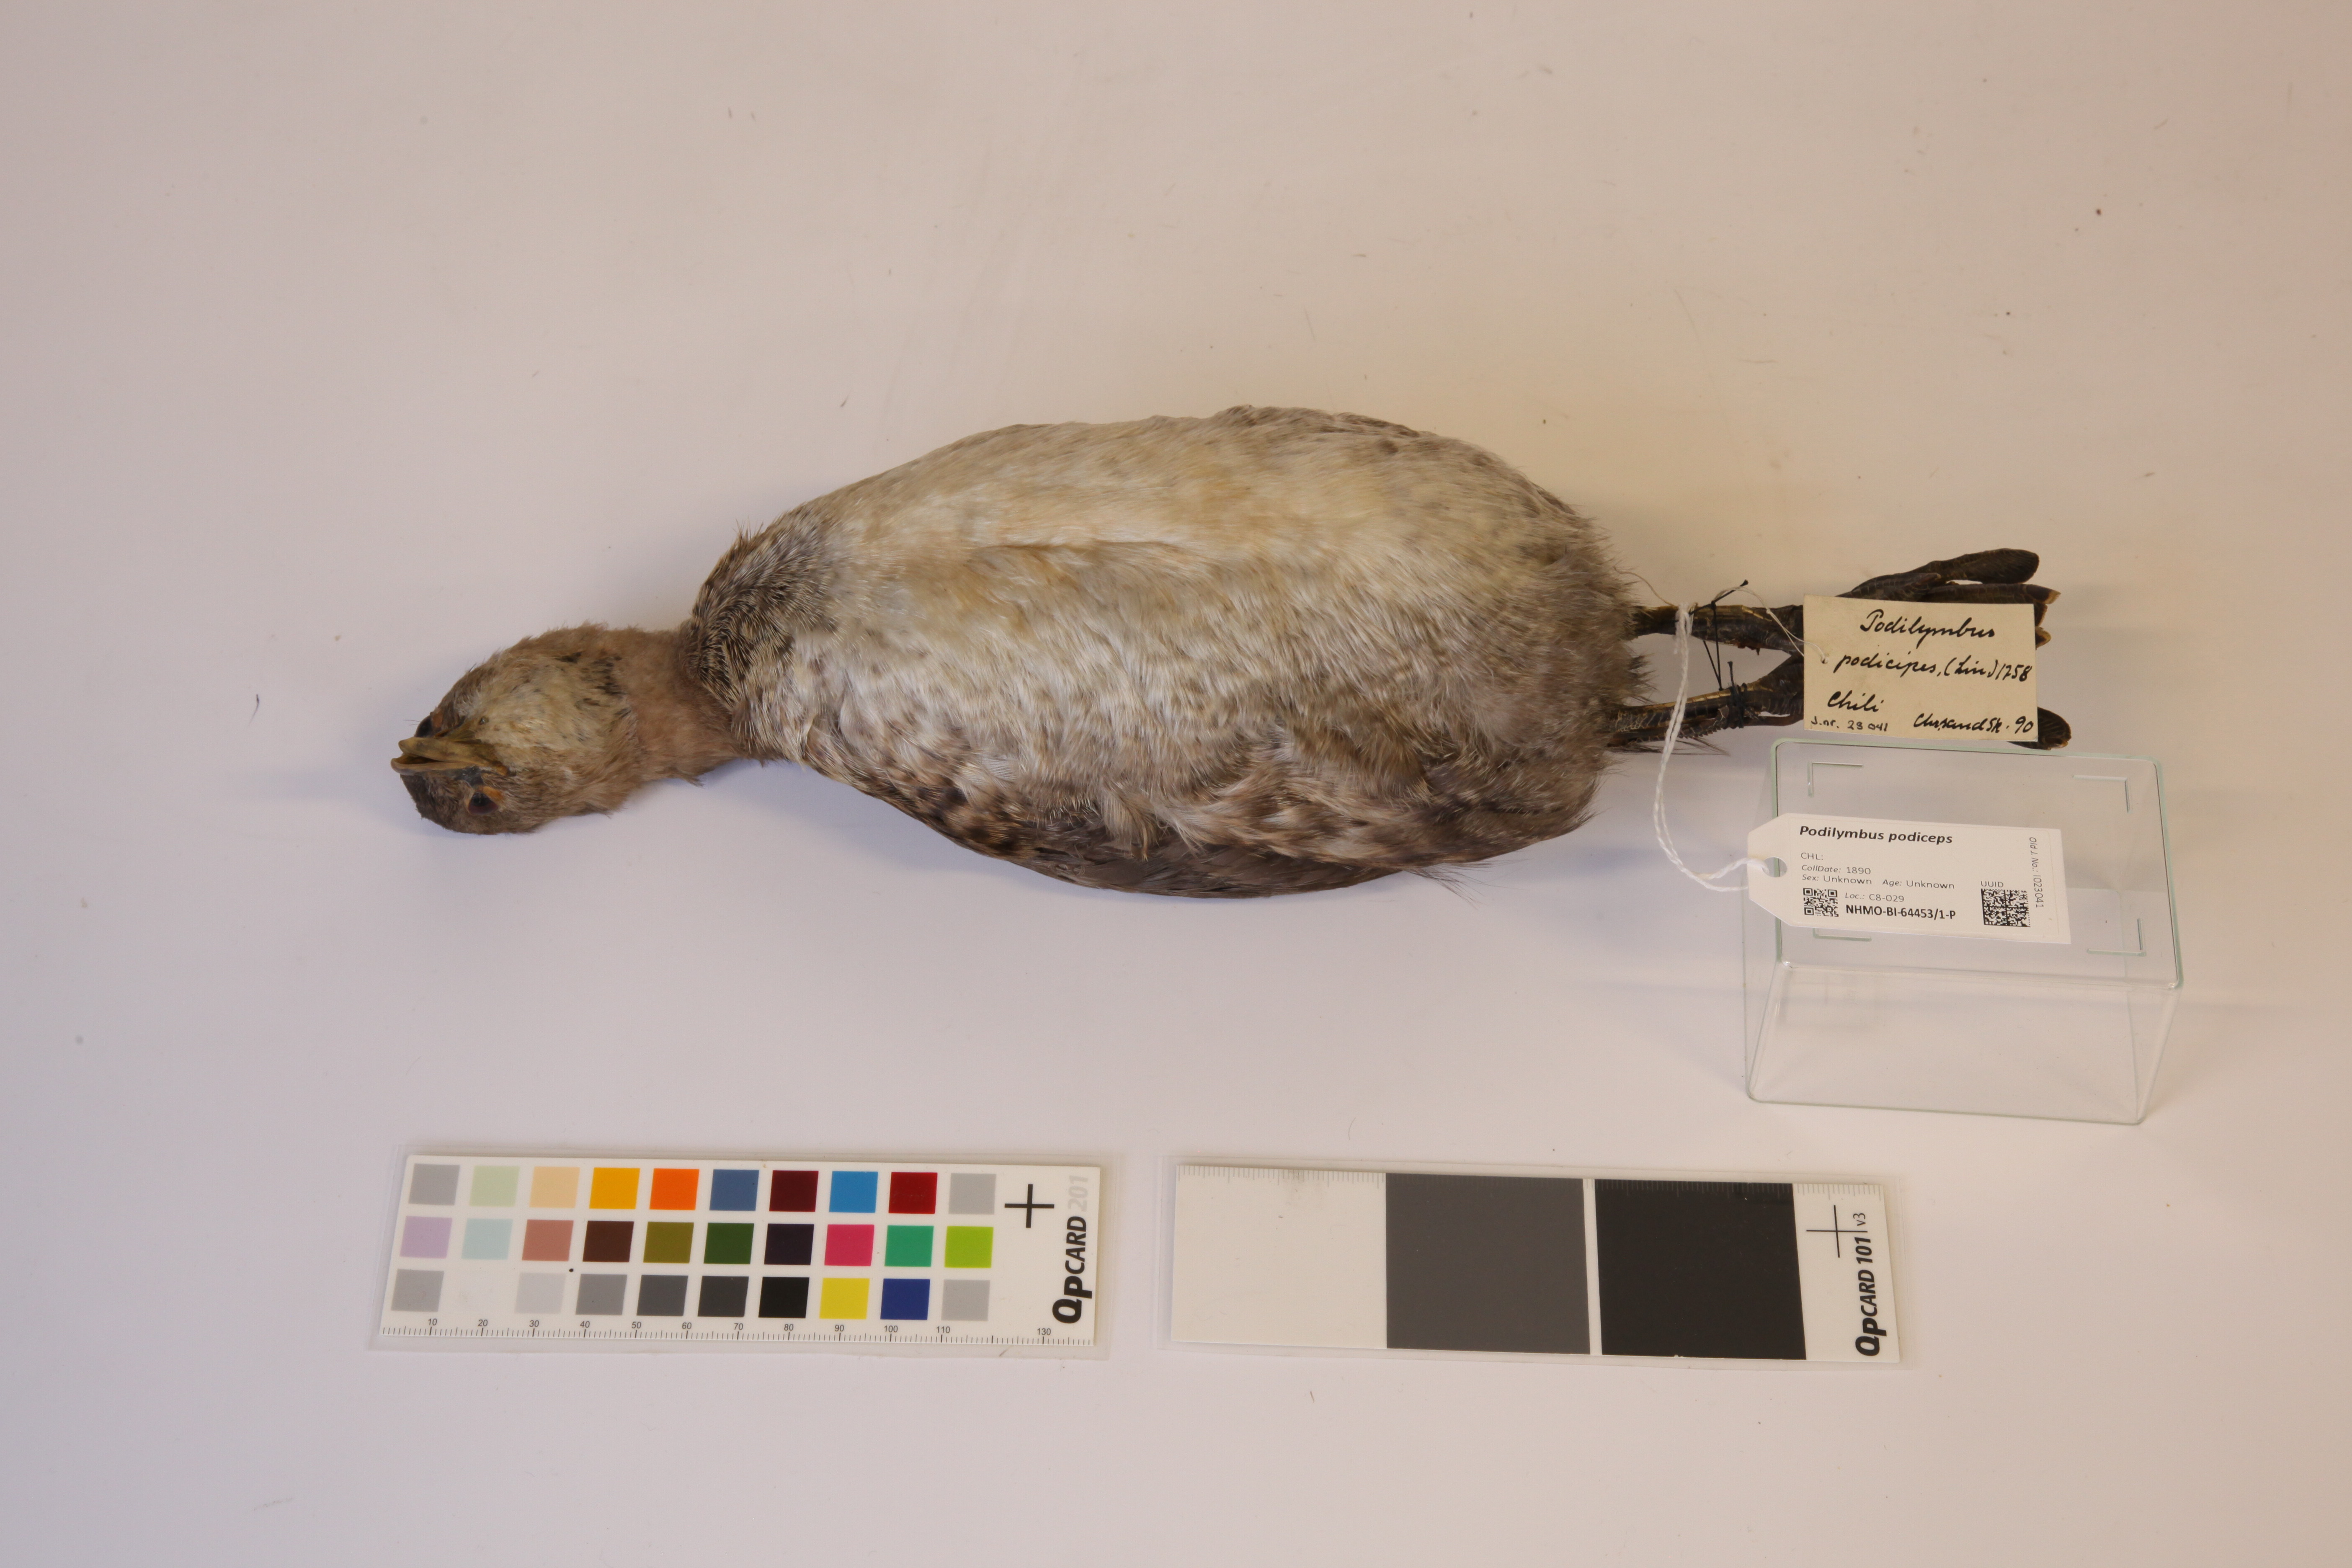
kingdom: Animalia
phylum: Chordata
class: Aves
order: Podicipediformes
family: Podicipedidae
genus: Podilymbus
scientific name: Podilymbus podiceps
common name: Pied-billed grebe
